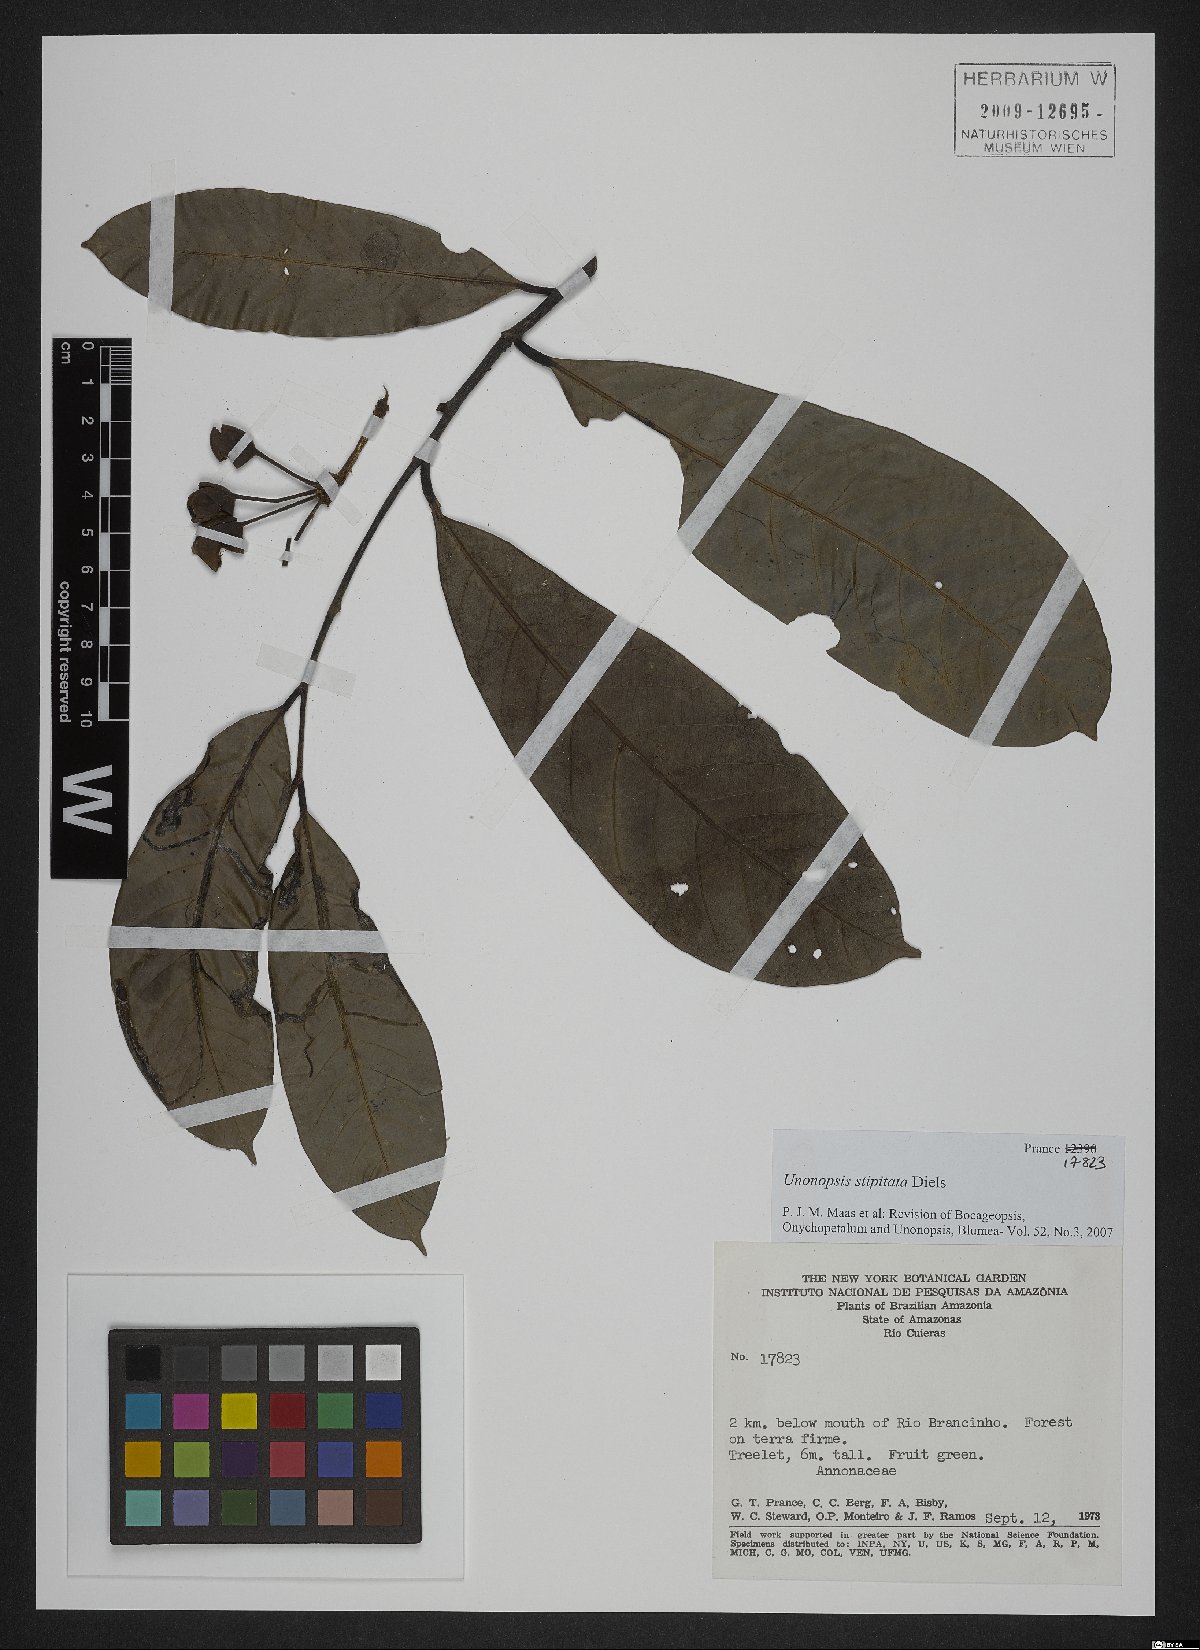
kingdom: Plantae
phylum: Tracheophyta
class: Magnoliopsida
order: Magnoliales
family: Annonaceae
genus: Unonopsis
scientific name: Unonopsis stipitata
